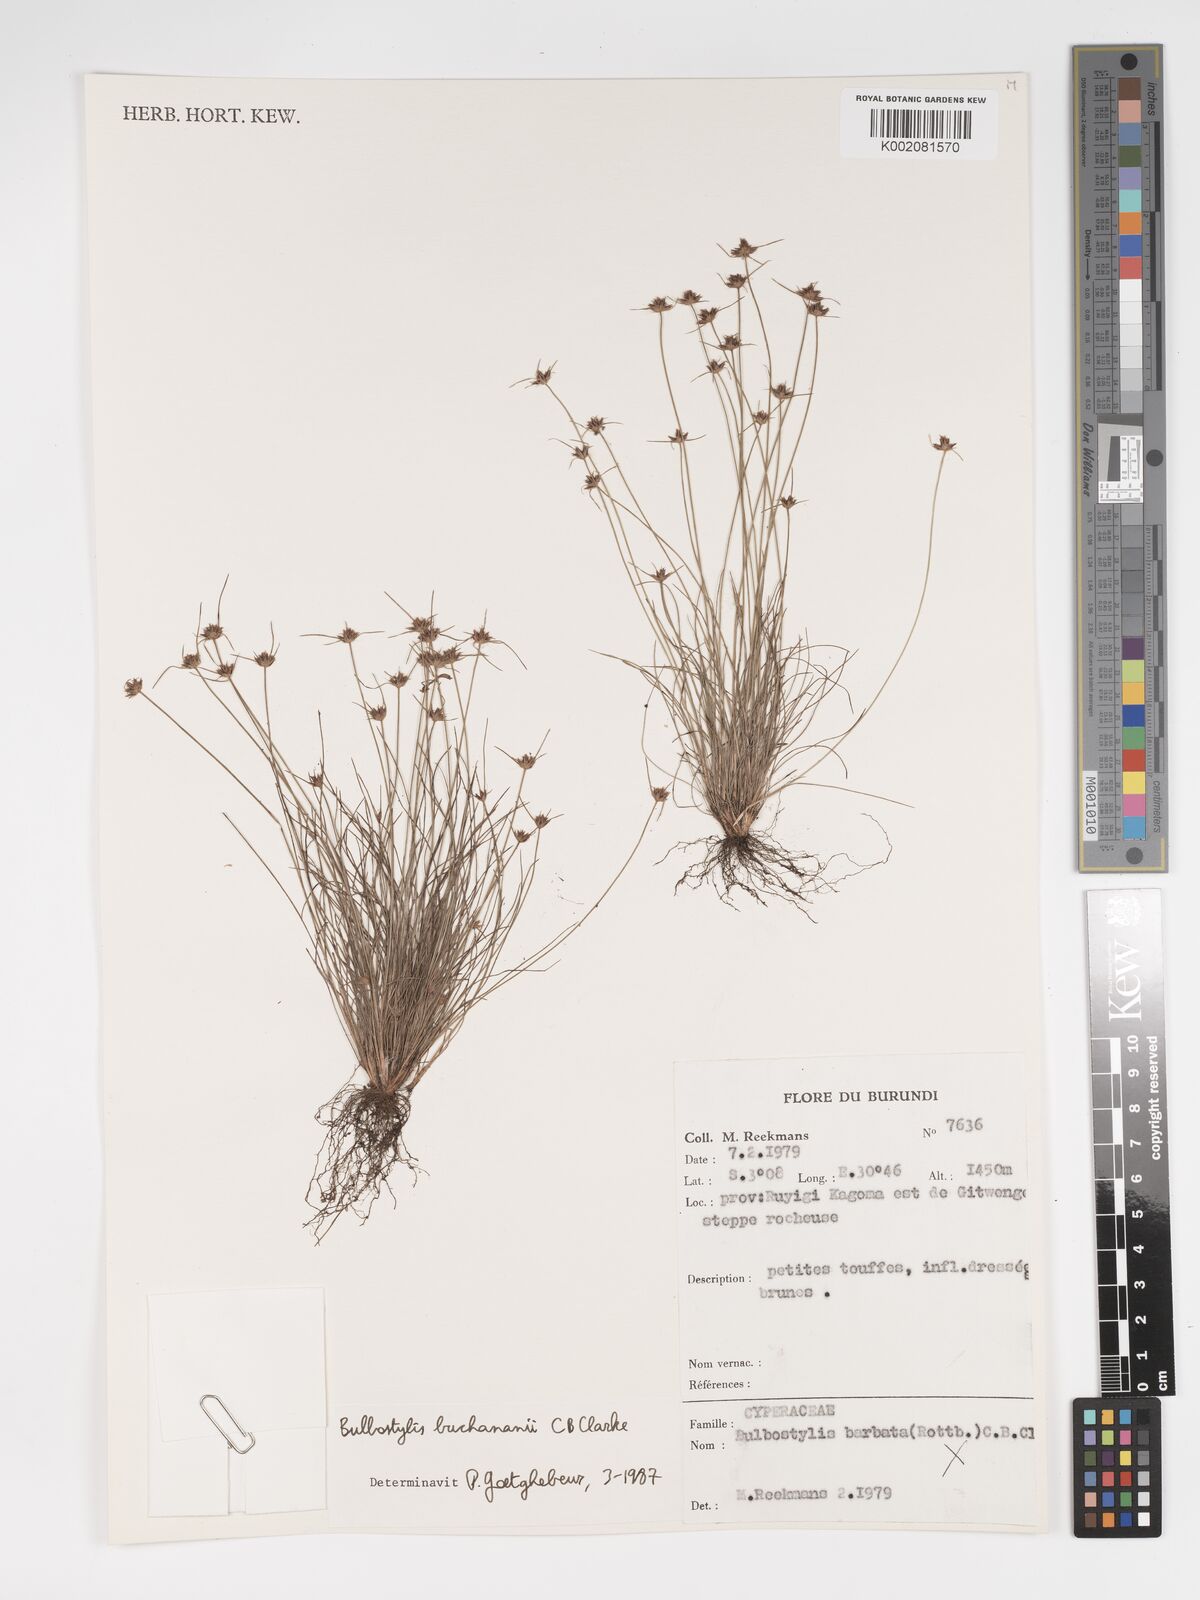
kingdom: Plantae
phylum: Tracheophyta
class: Liliopsida
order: Poales
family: Cyperaceae
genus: Bulbostylis
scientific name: Bulbostylis buchananii
